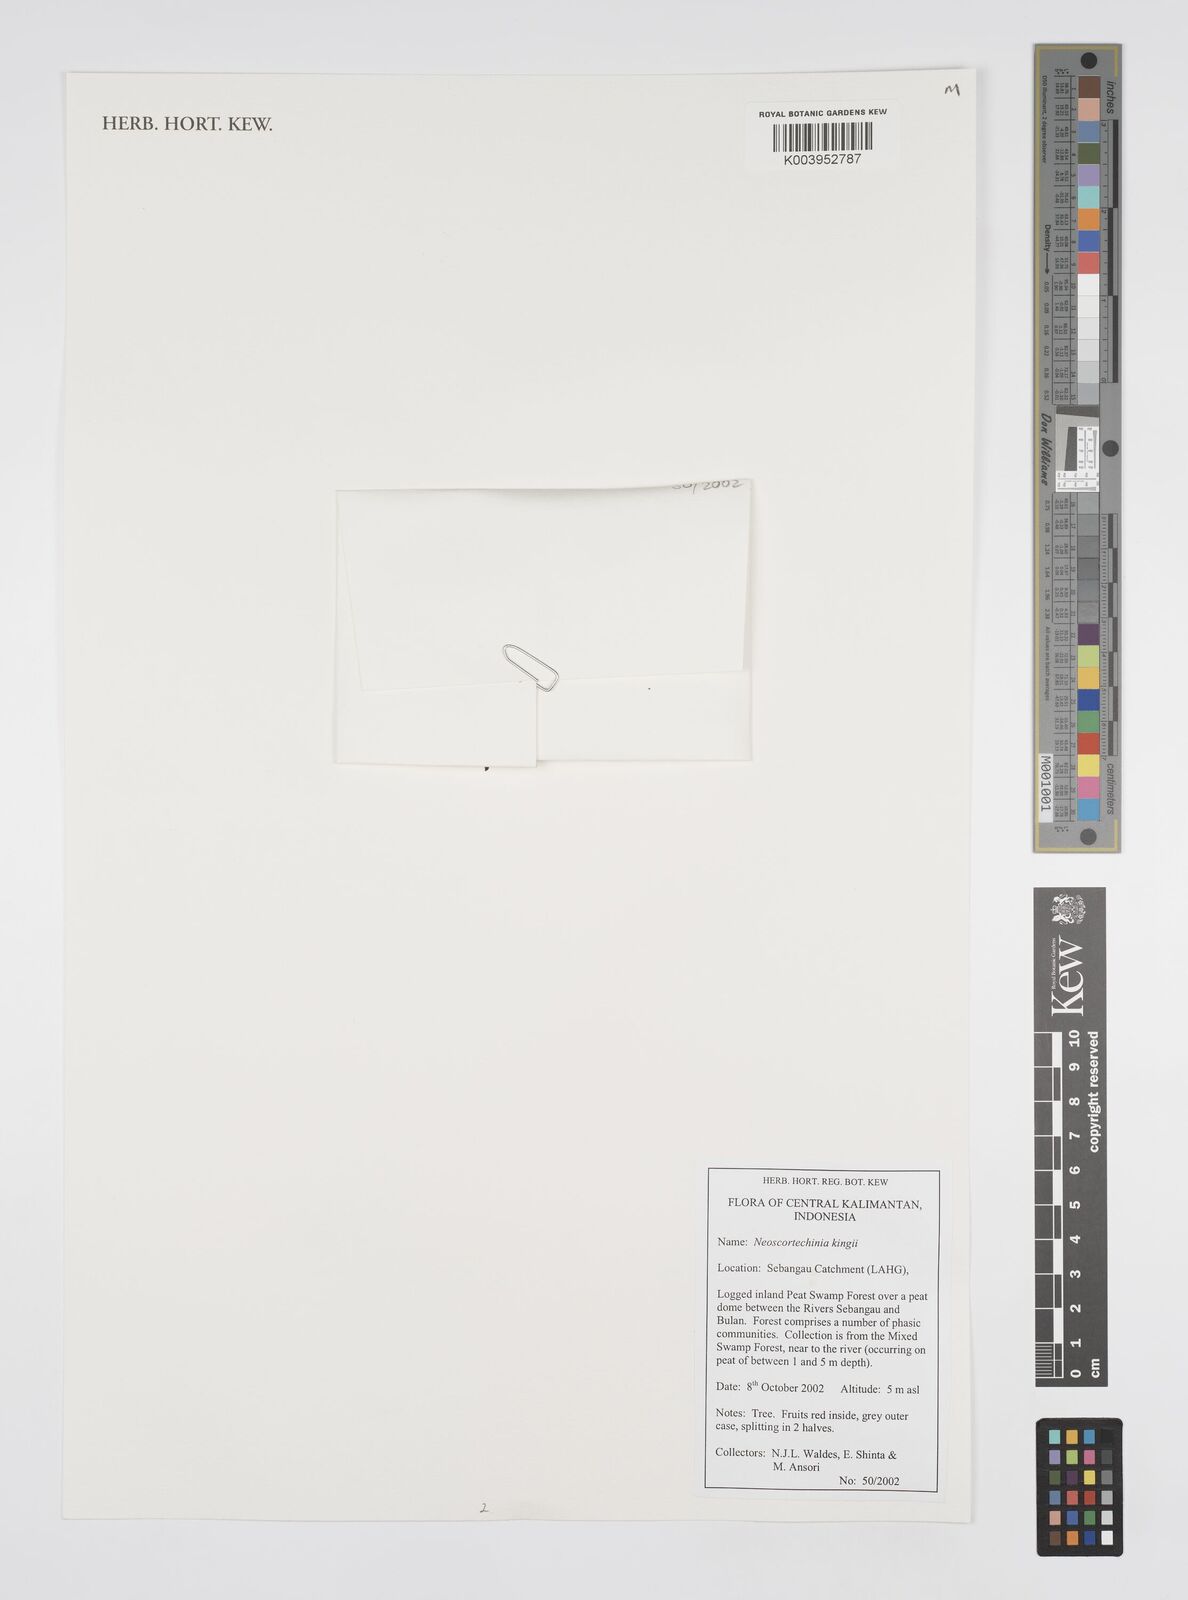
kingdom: Plantae
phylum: Tracheophyta
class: Magnoliopsida
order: Malpighiales
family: Euphorbiaceae
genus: Neoscortechinia
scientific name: Neoscortechinia kingii
